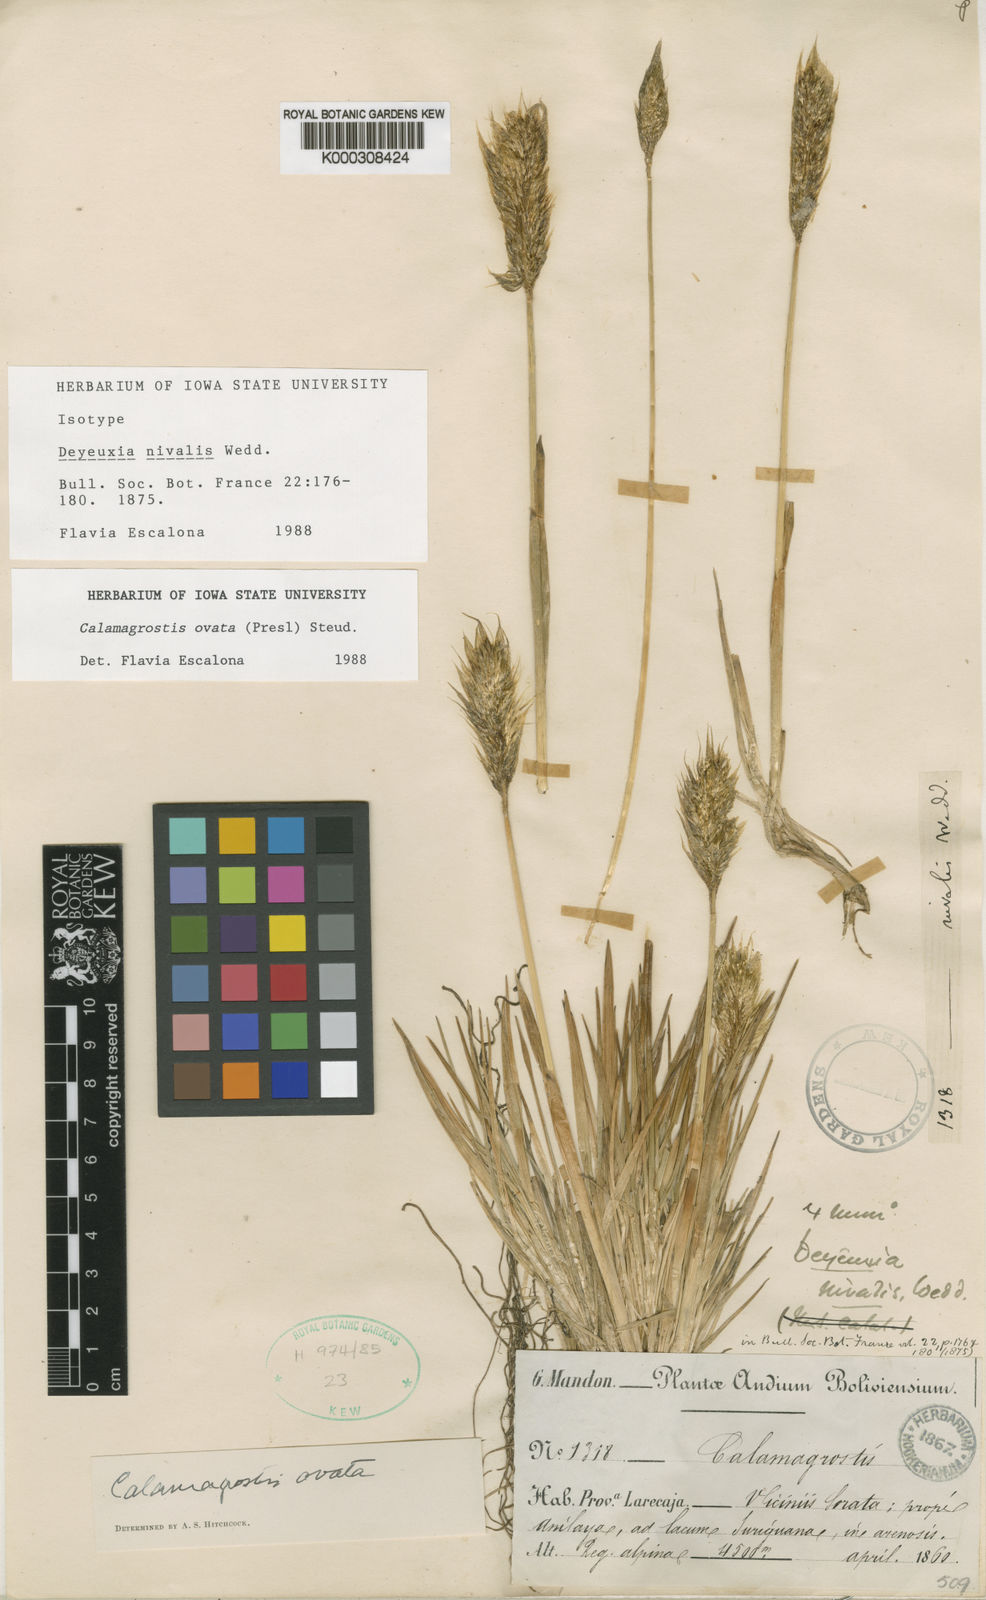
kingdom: Plantae
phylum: Tracheophyta
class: Liliopsida
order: Poales
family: Poaceae
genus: Deschampsia
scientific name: Deschampsia ovata
